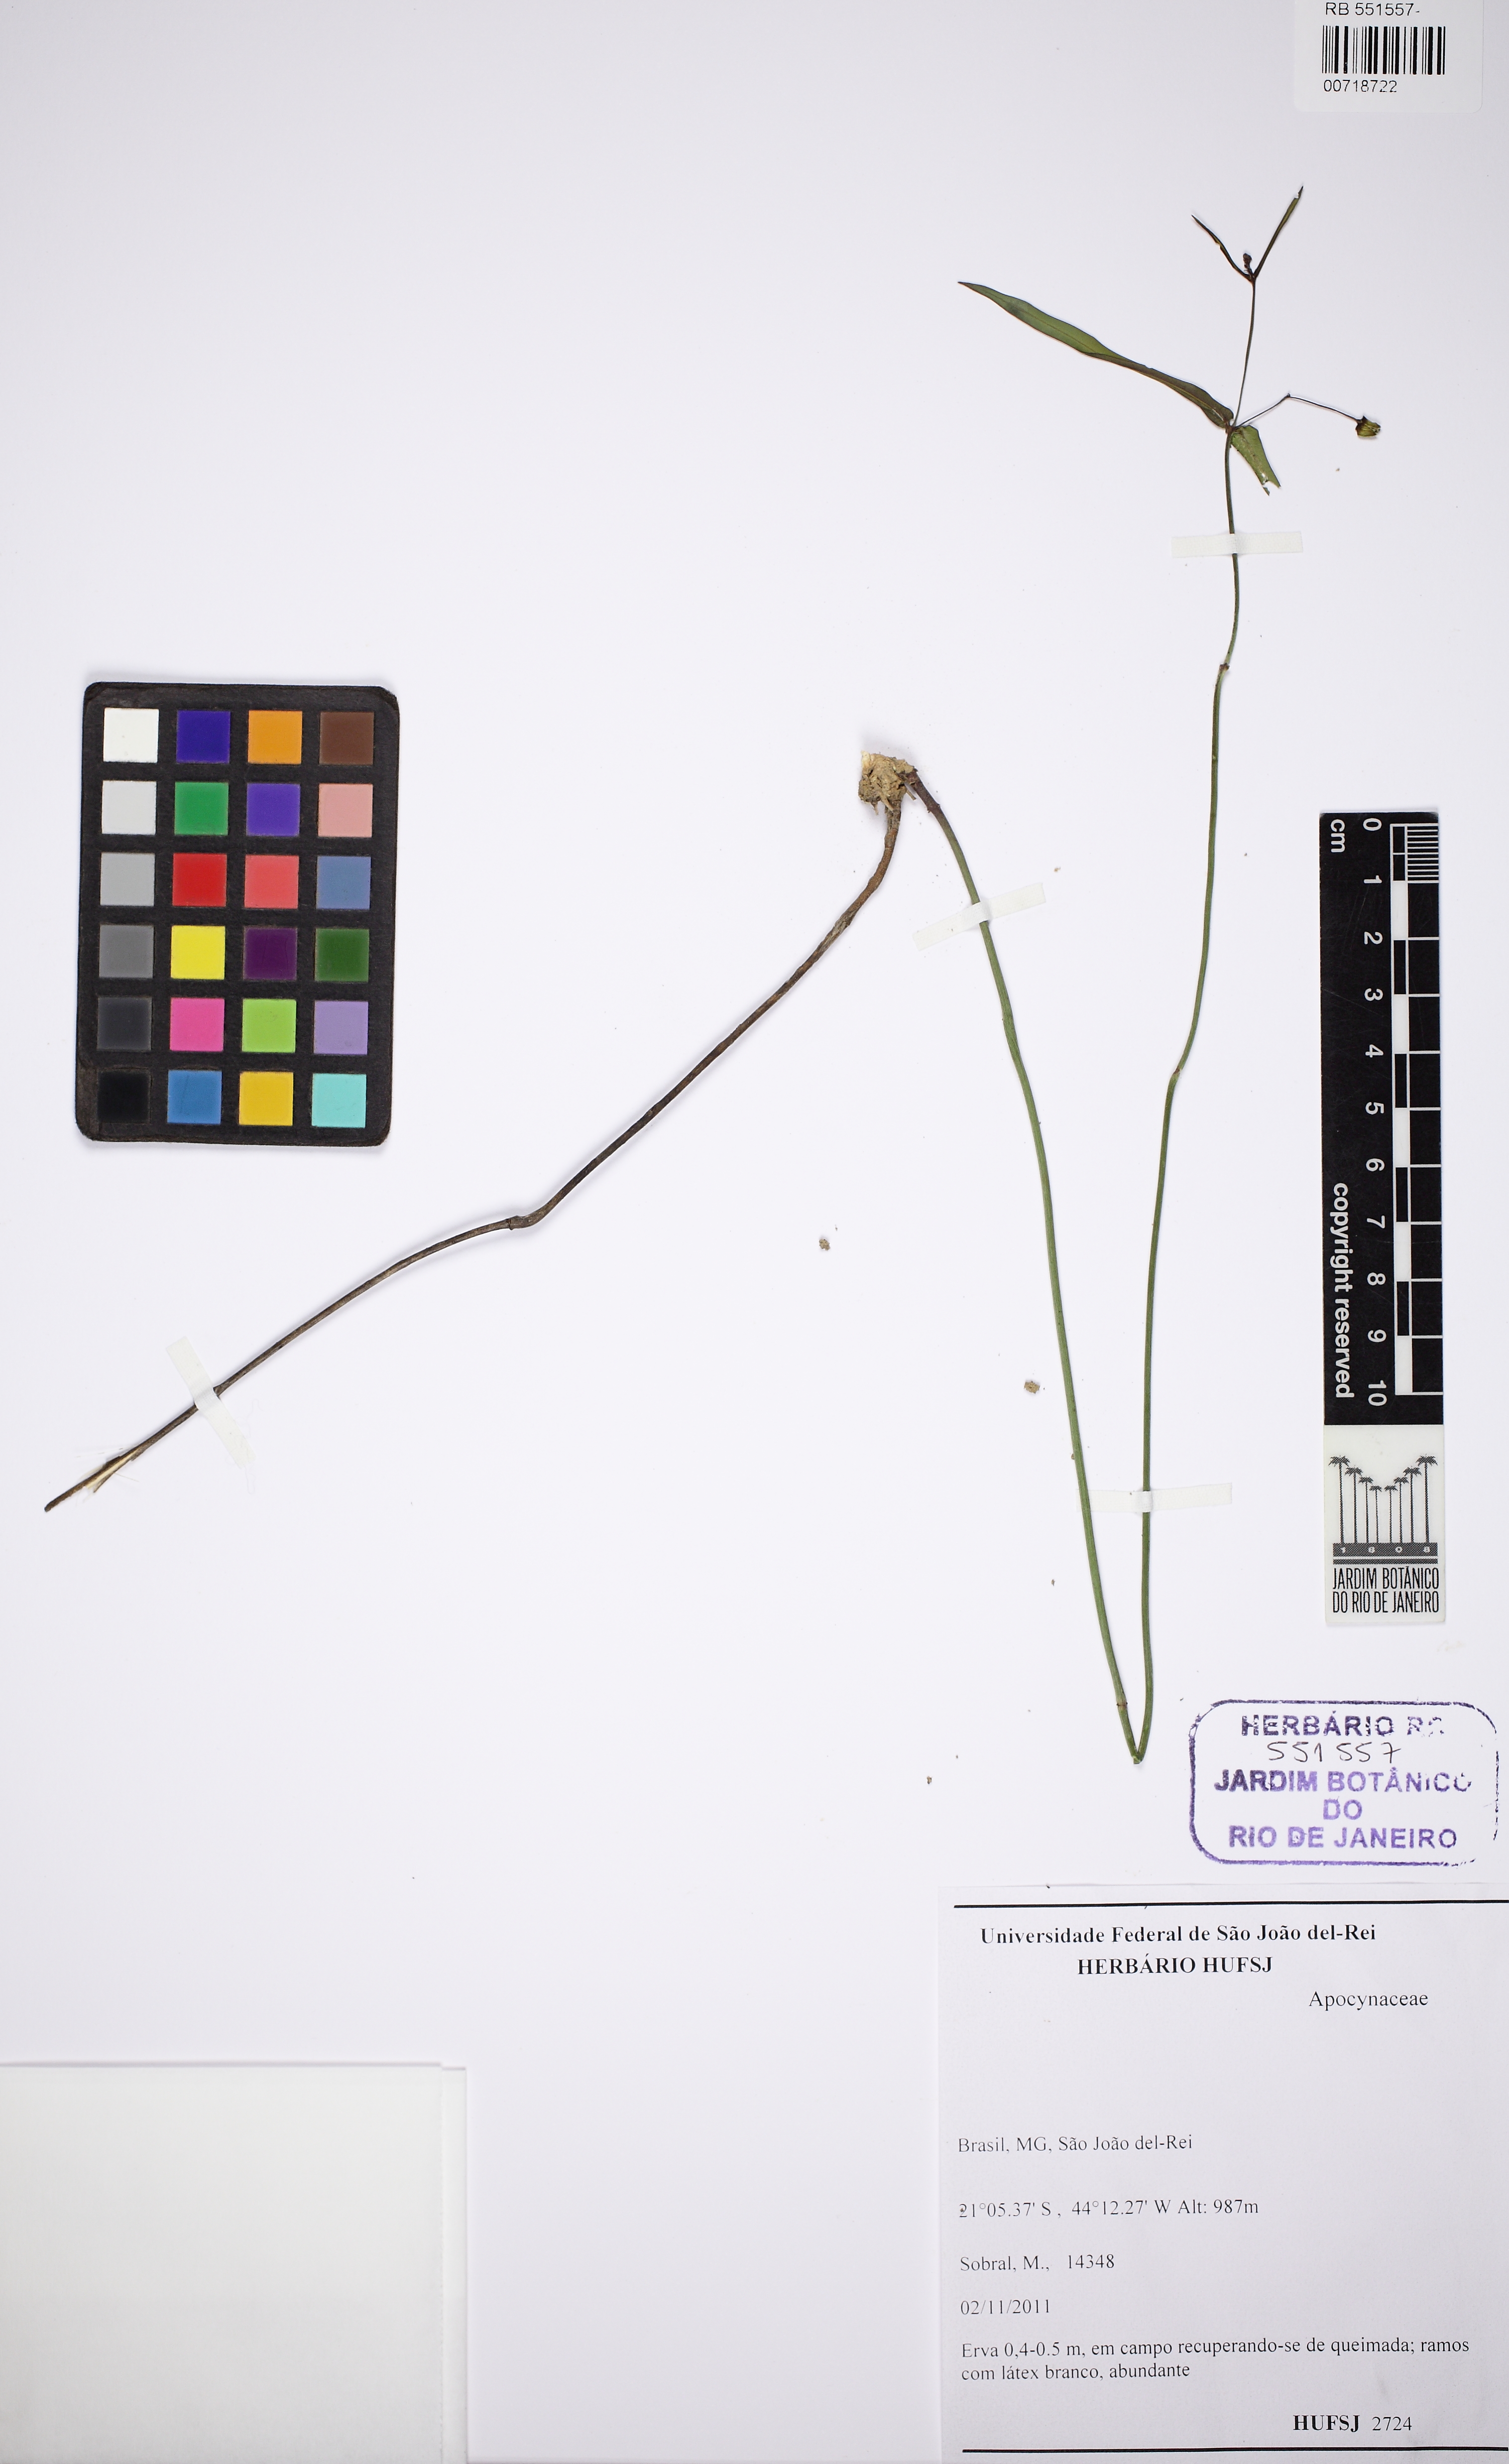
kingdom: Plantae
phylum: Tracheophyta
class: Magnoliopsida
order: Gentianales
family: Apocynaceae
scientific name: Apocynaceae
